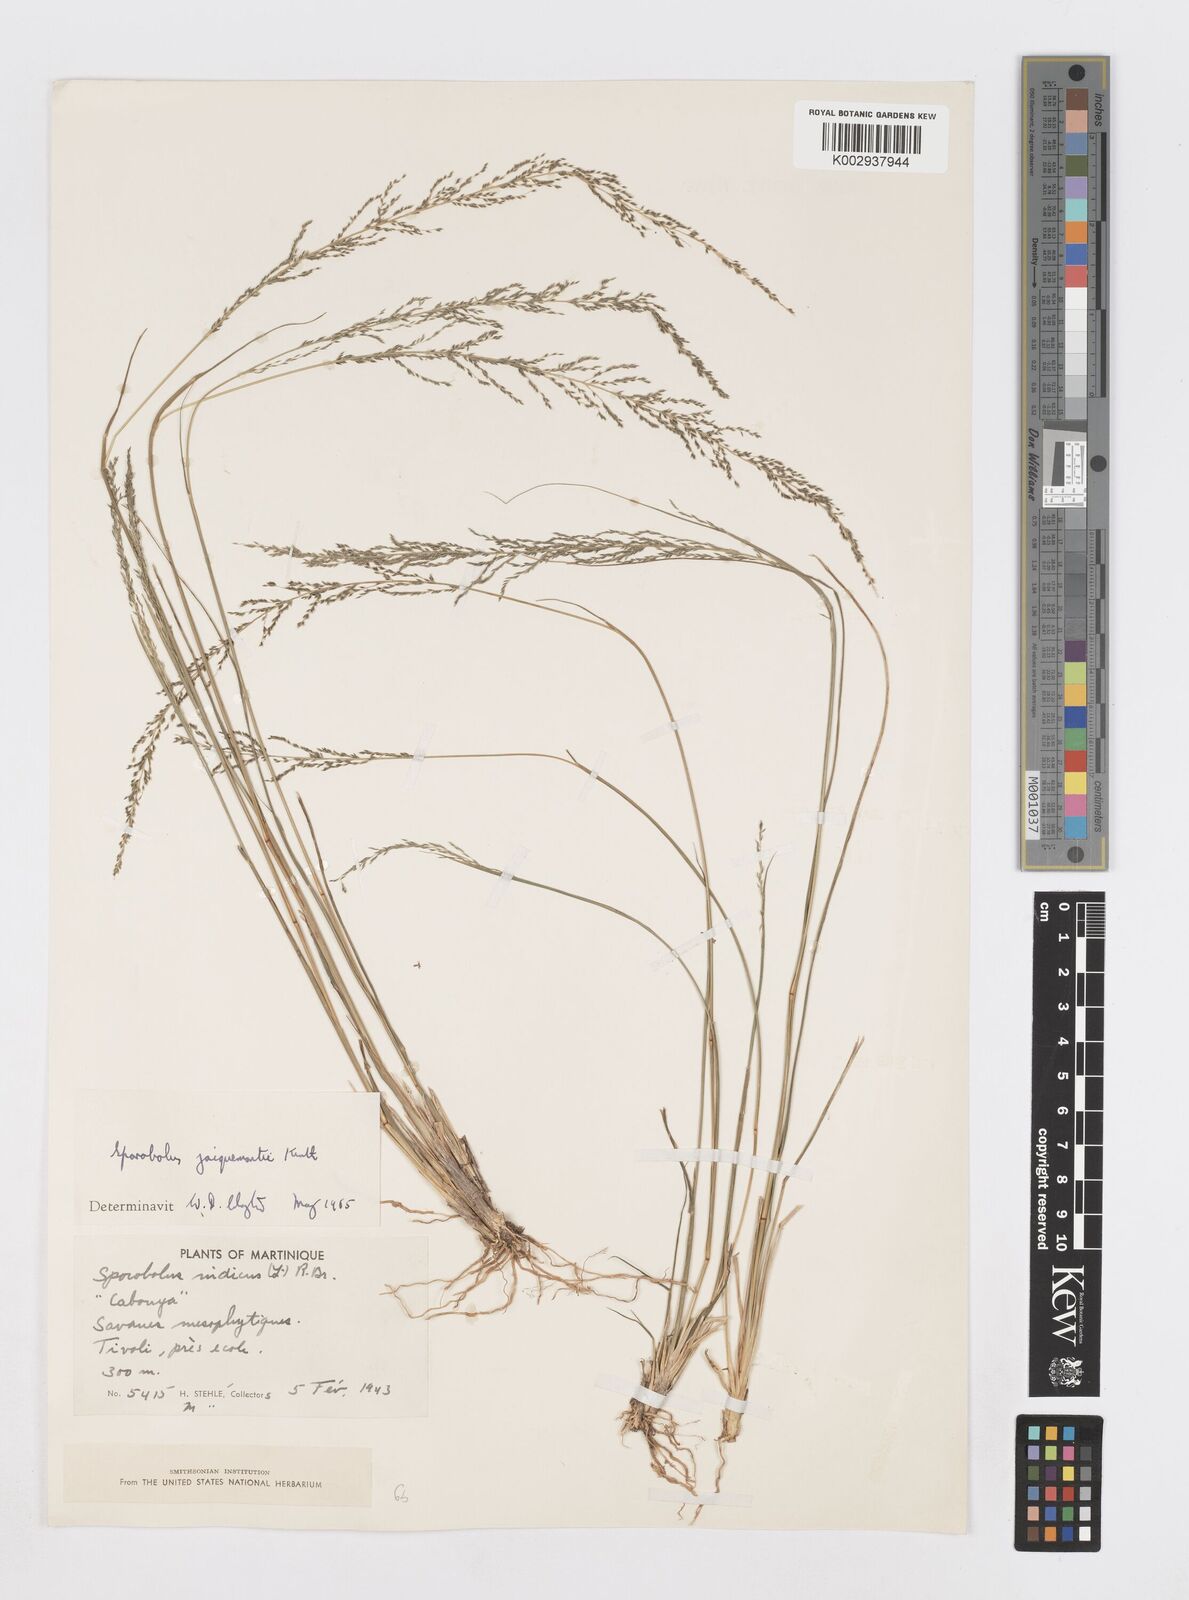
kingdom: Plantae
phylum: Tracheophyta
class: Liliopsida
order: Poales
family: Poaceae
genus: Sporobolus
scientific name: Sporobolus pyramidalis
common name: West indian dropseed
